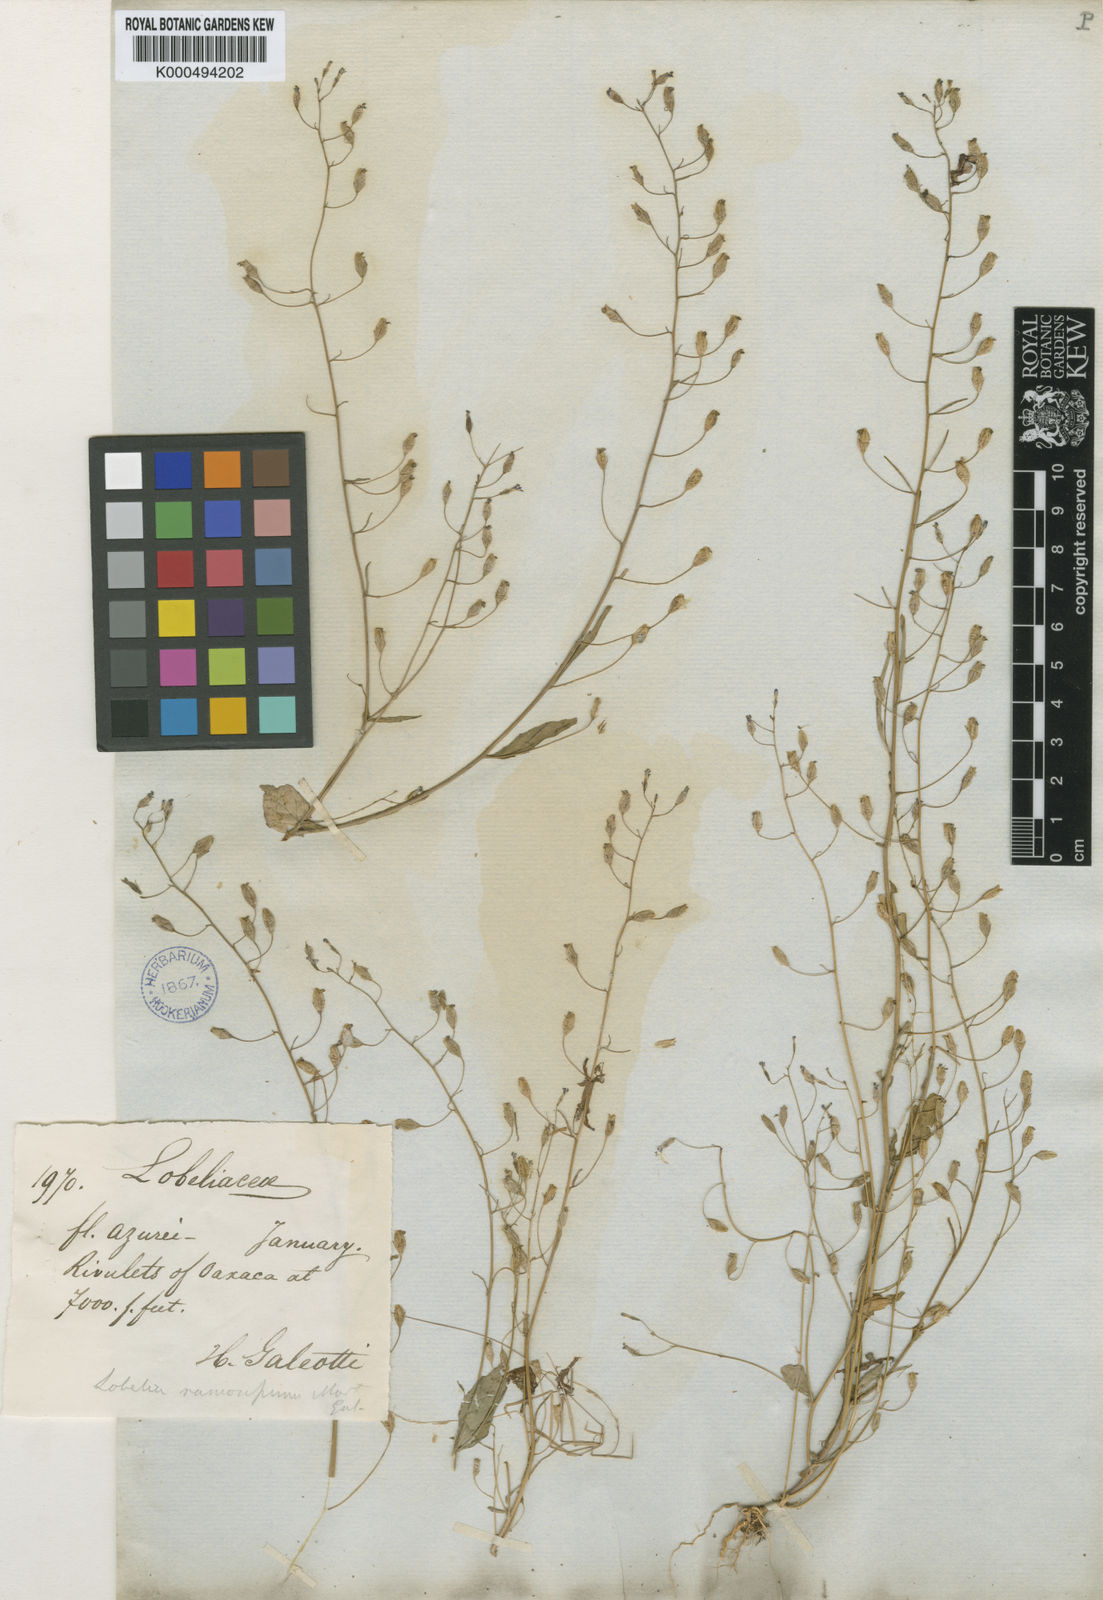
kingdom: Plantae
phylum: Tracheophyta
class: Magnoliopsida
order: Asterales
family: Campanulaceae
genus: Diastatea
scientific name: Diastatea virgata
